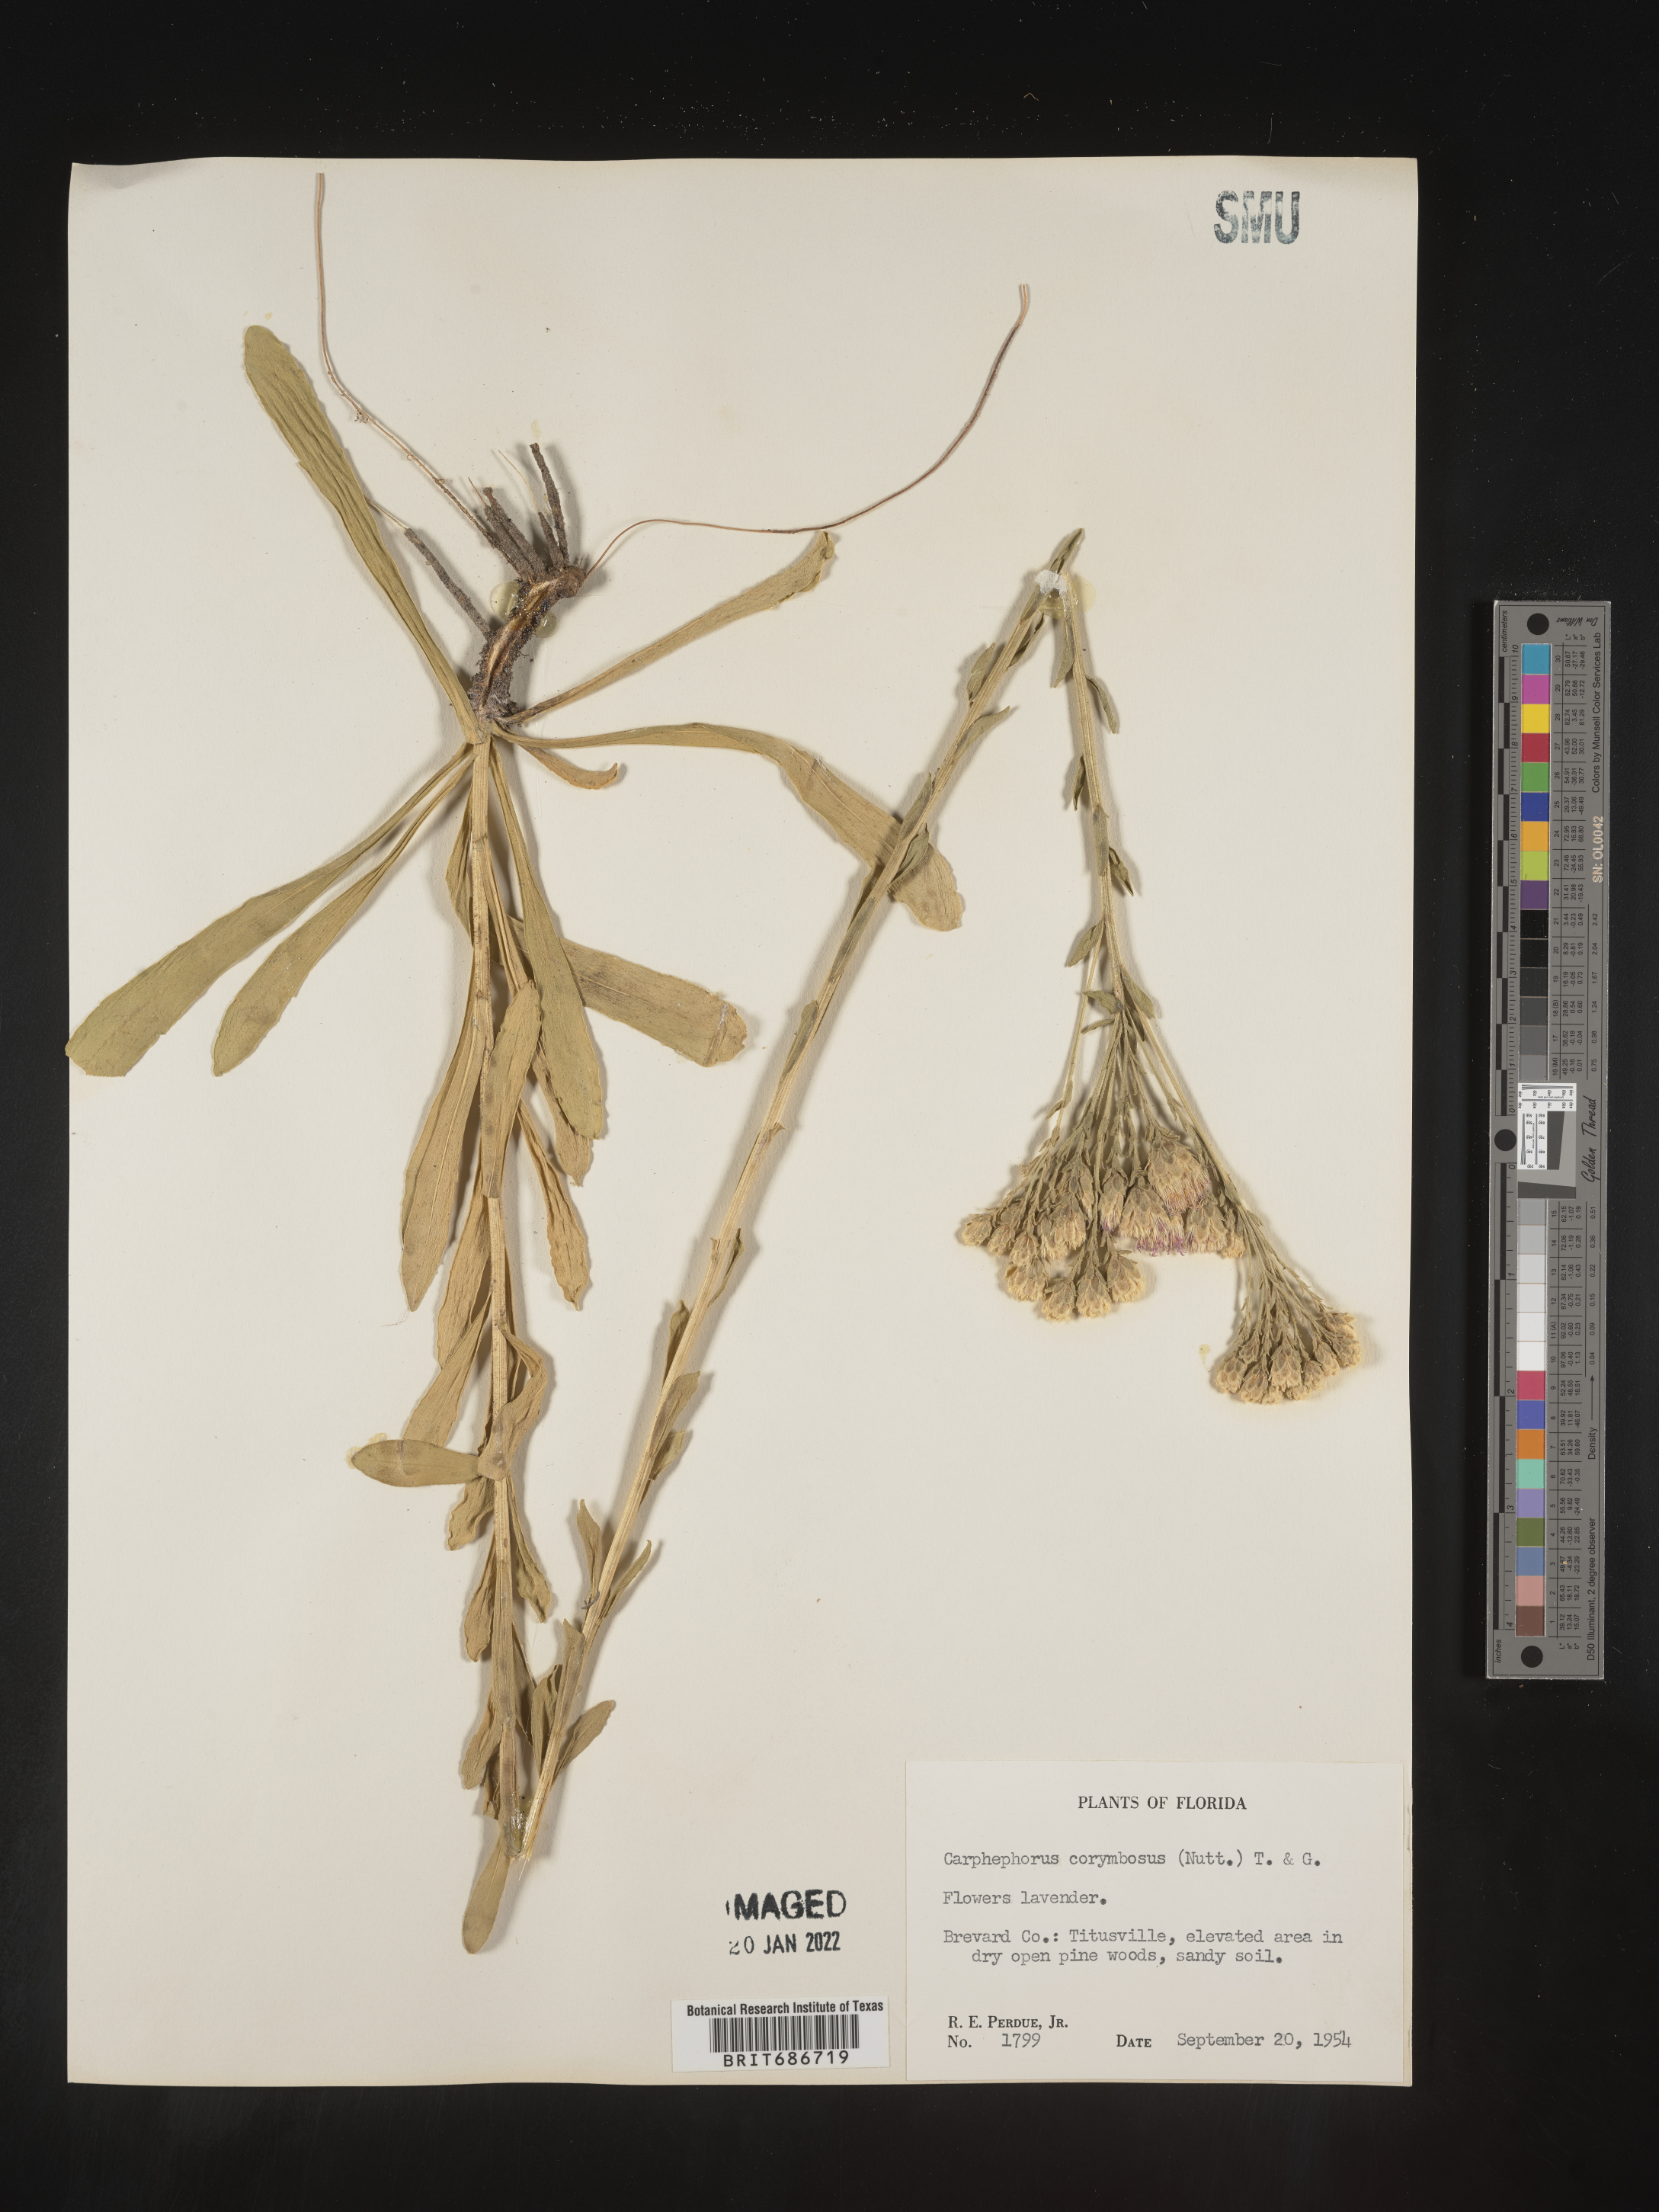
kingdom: Plantae
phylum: Tracheophyta
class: Magnoliopsida
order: Asterales
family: Asteraceae
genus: Carphephorus
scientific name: Carphephorus corymbosus
